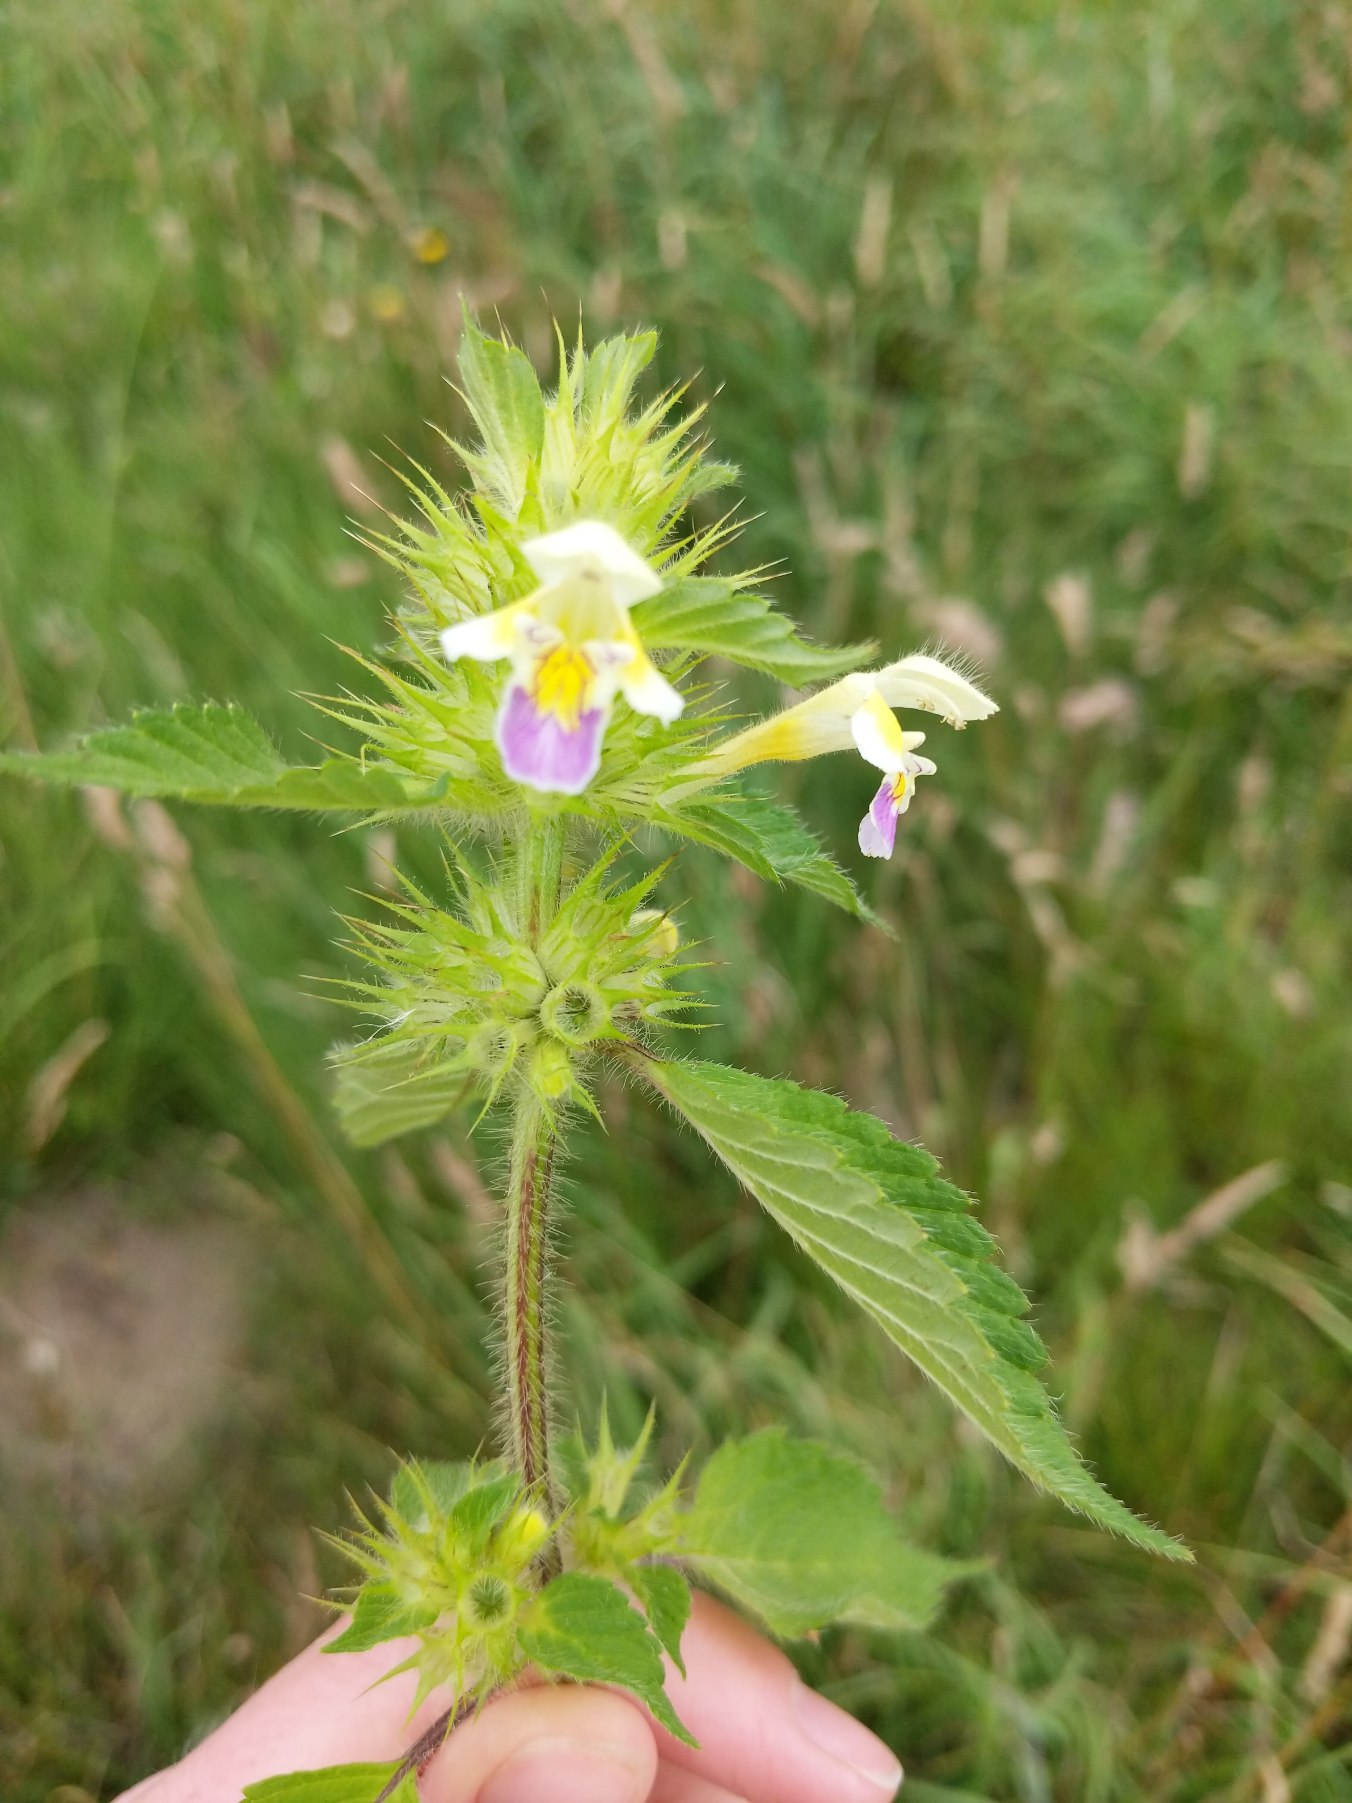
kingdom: Plantae
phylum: Tracheophyta
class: Magnoliopsida
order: Lamiales
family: Lamiaceae
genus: Galeopsis
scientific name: Galeopsis speciosa
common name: Hamp-hanekro
